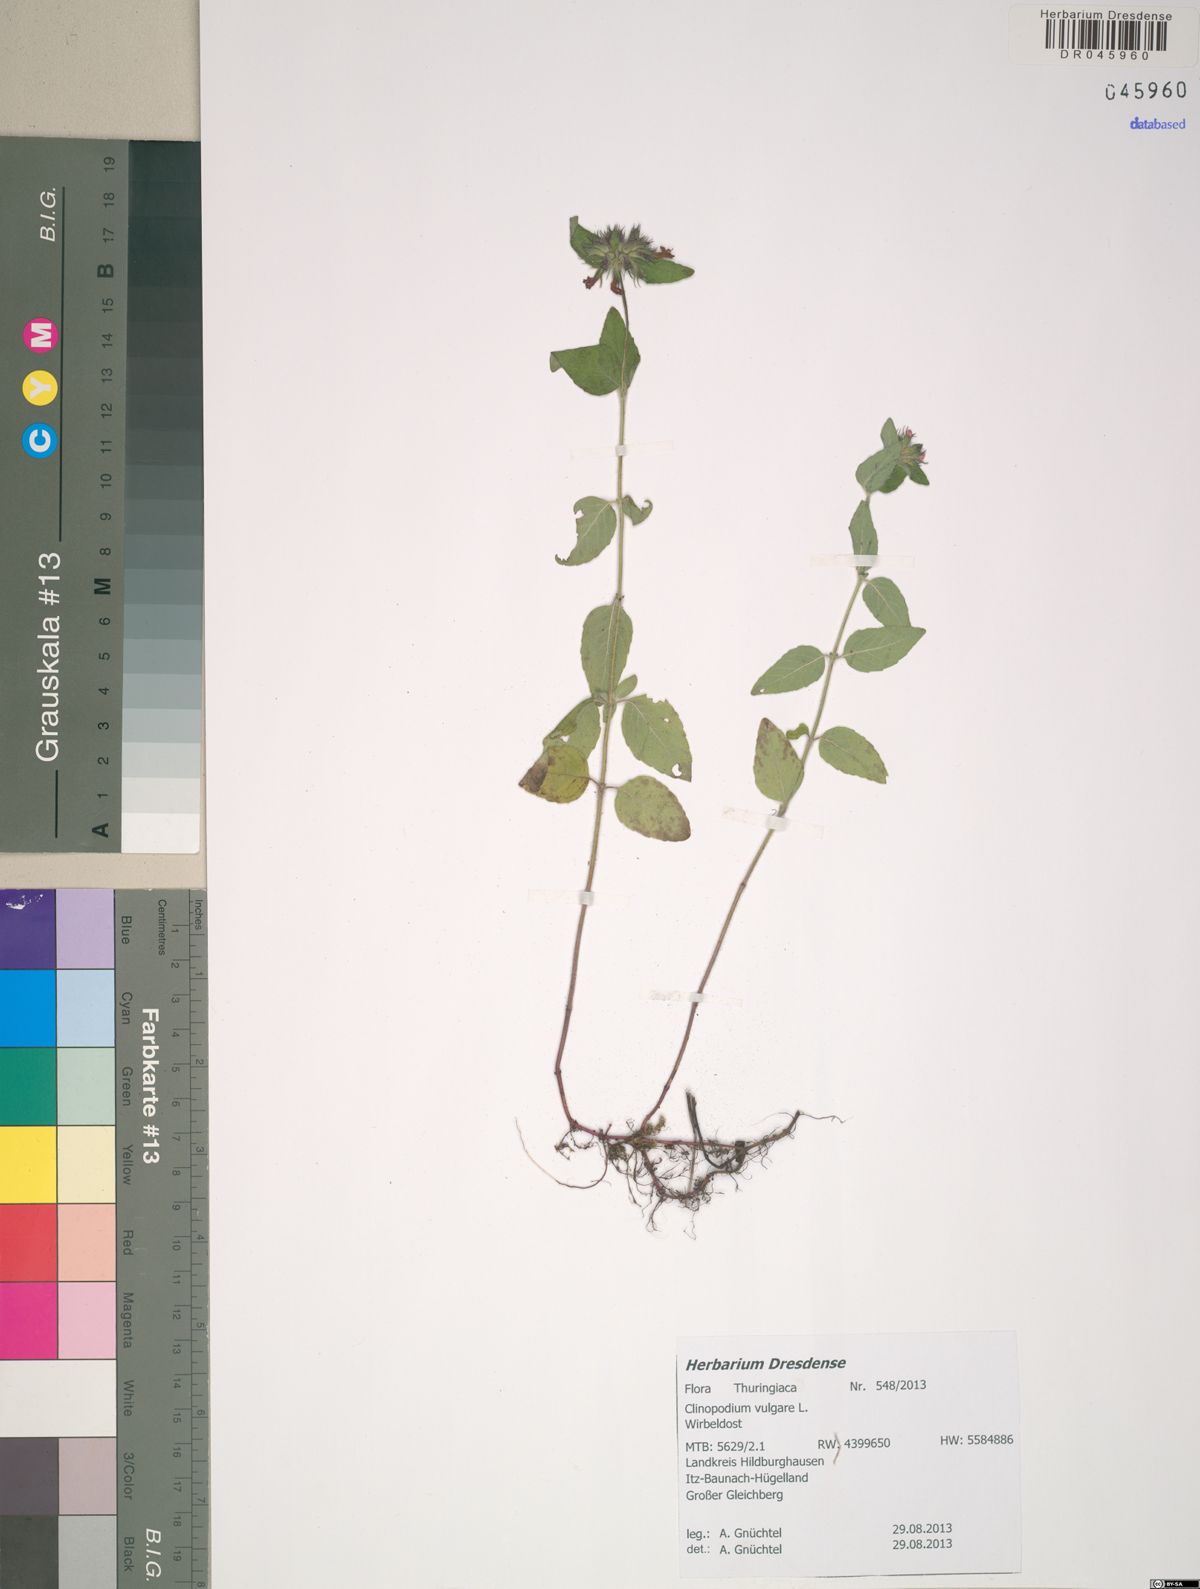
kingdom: Plantae
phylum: Tracheophyta
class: Magnoliopsida
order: Lamiales
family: Lamiaceae
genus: Clinopodium
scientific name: Clinopodium vulgare
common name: Wild basil
